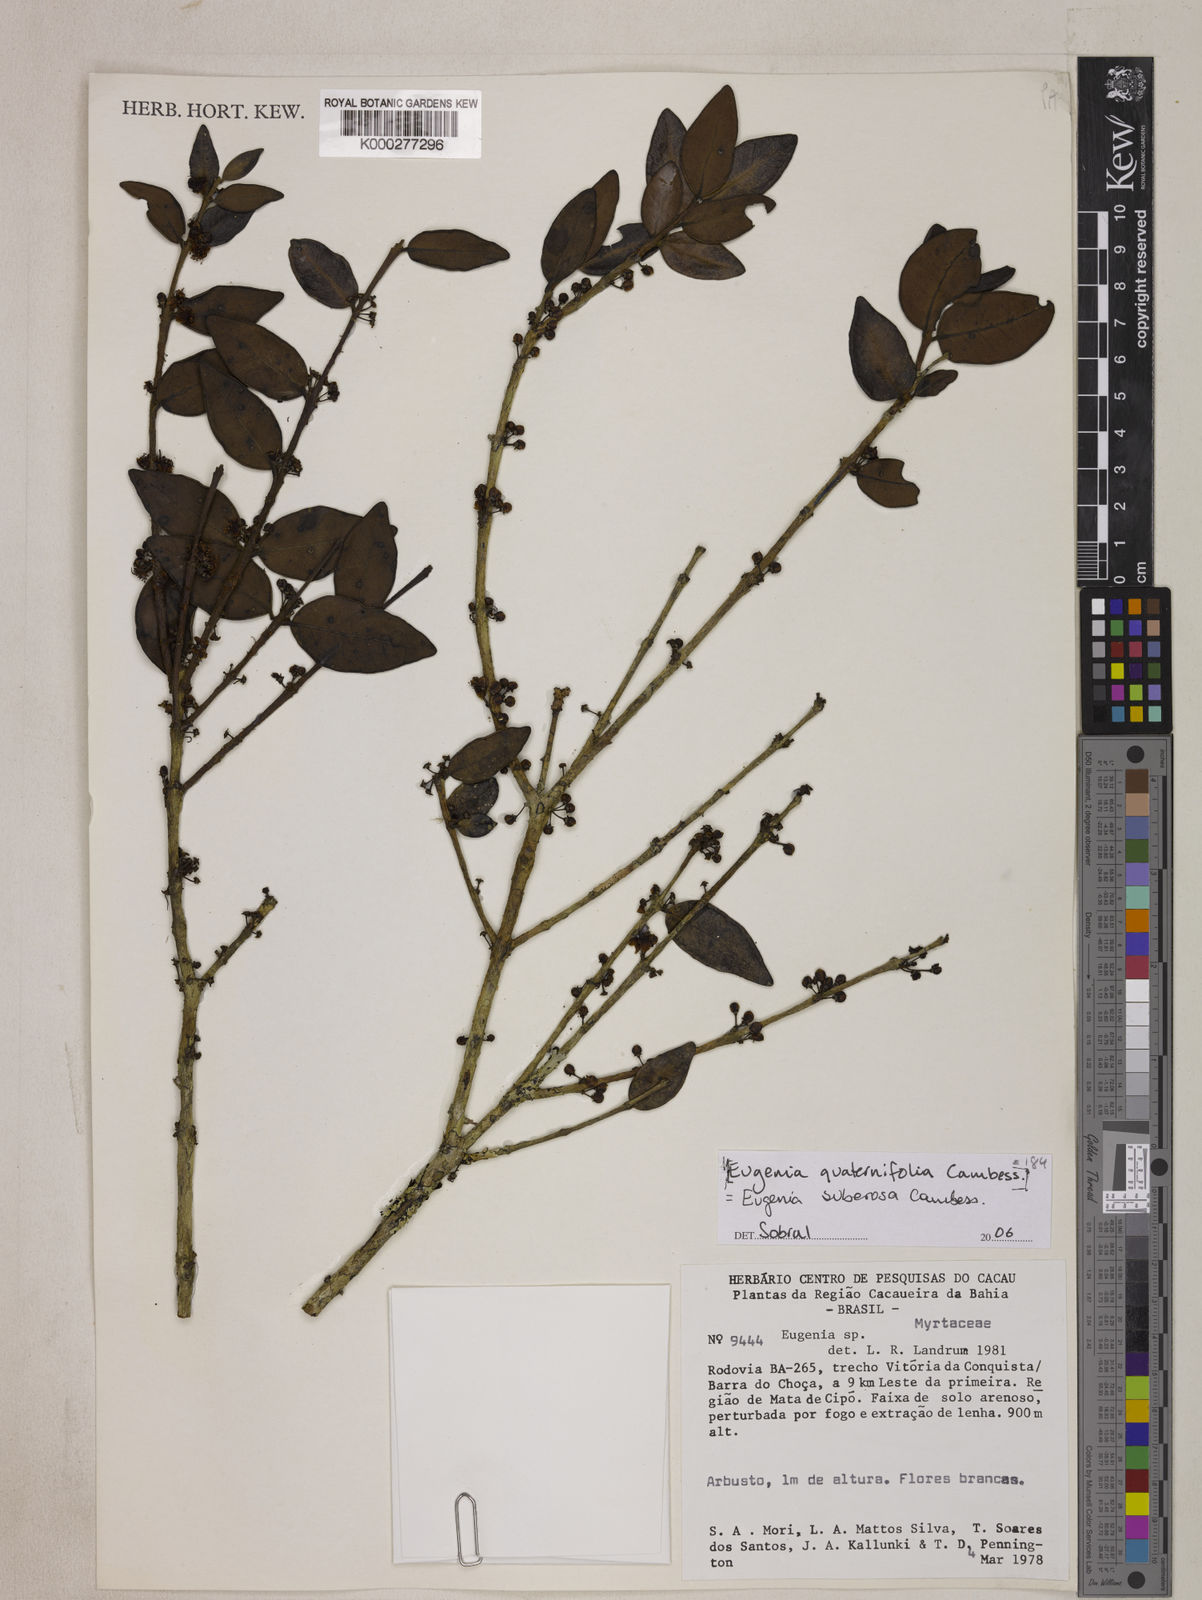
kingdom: Plantae
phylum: Tracheophyta
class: Magnoliopsida
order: Myrtales
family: Myrtaceae
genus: Eugenia
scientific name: Eugenia vetula
